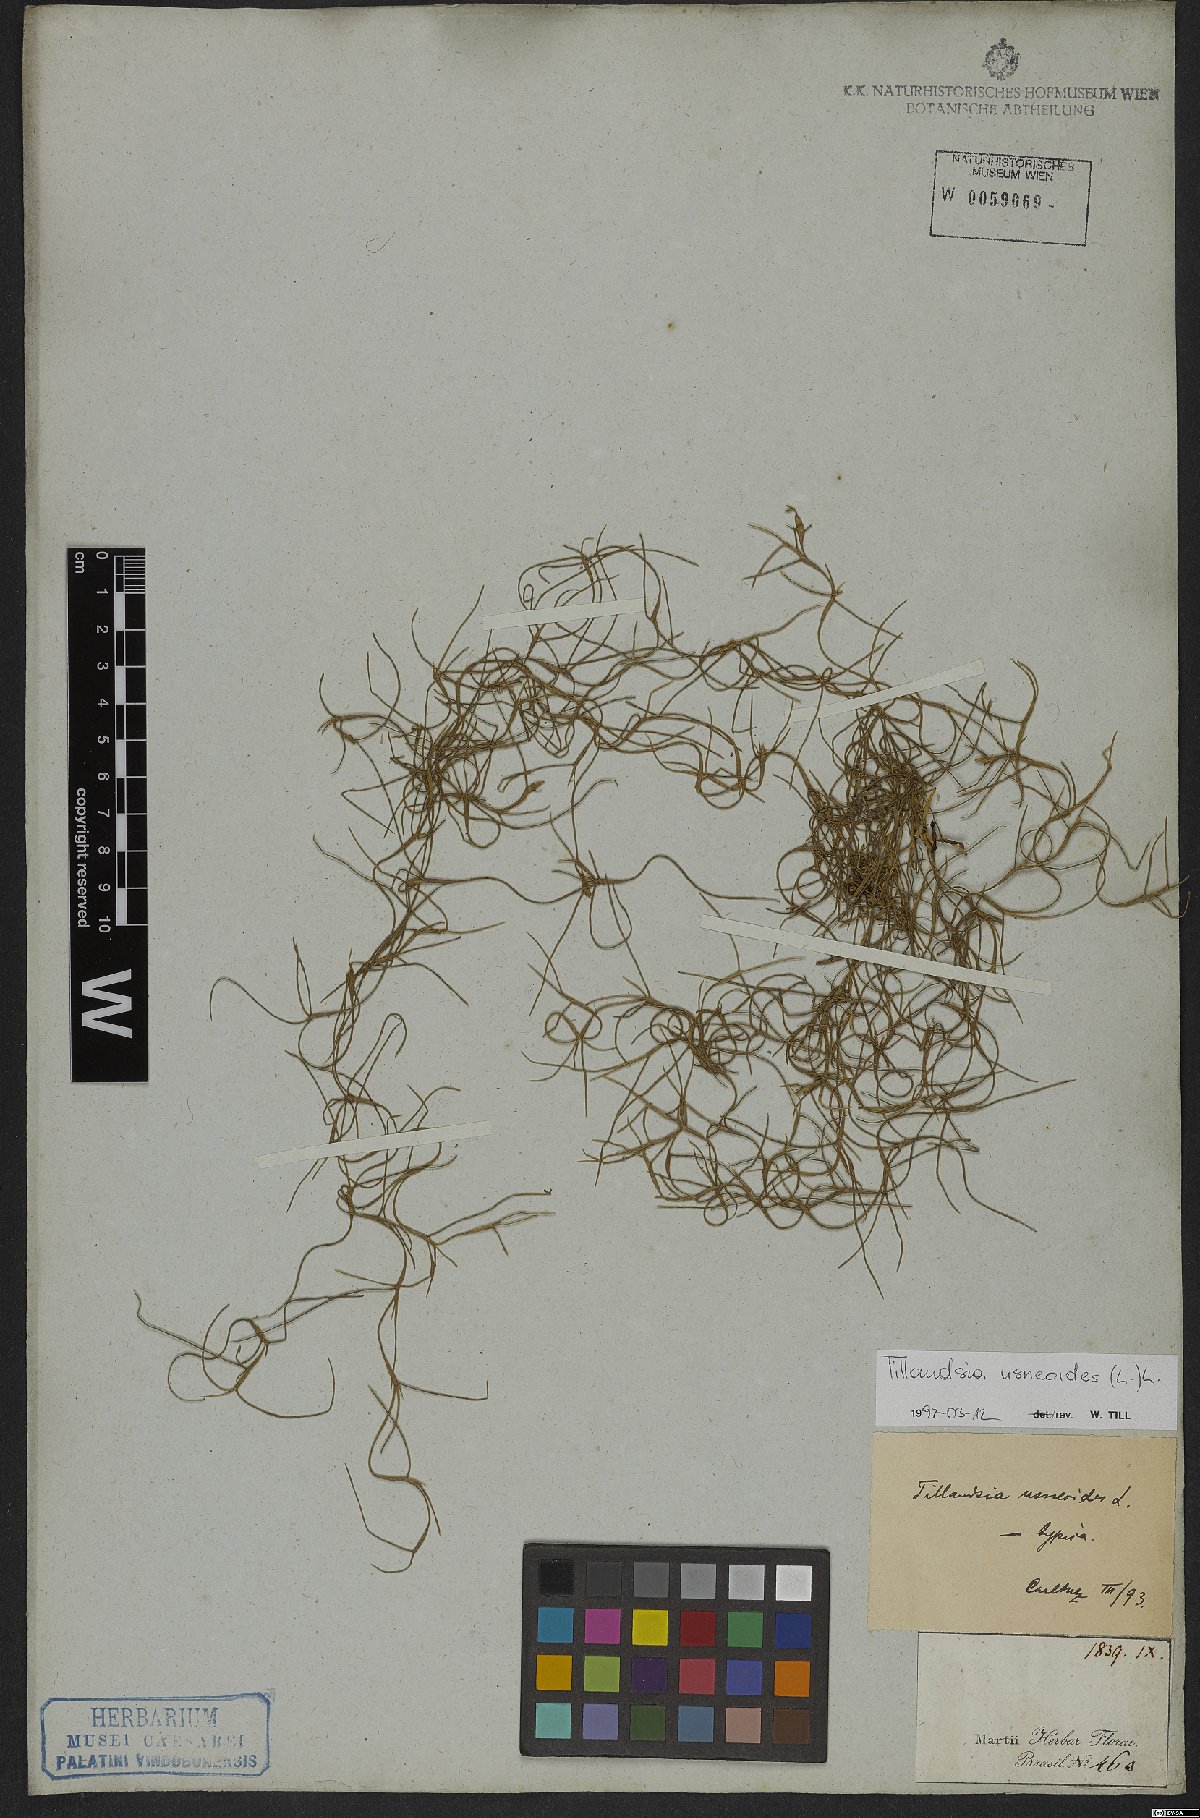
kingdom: Plantae
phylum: Tracheophyta
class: Liliopsida
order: Poales
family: Bromeliaceae
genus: Tillandsia
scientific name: Tillandsia usneoides
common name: Spanish moss
